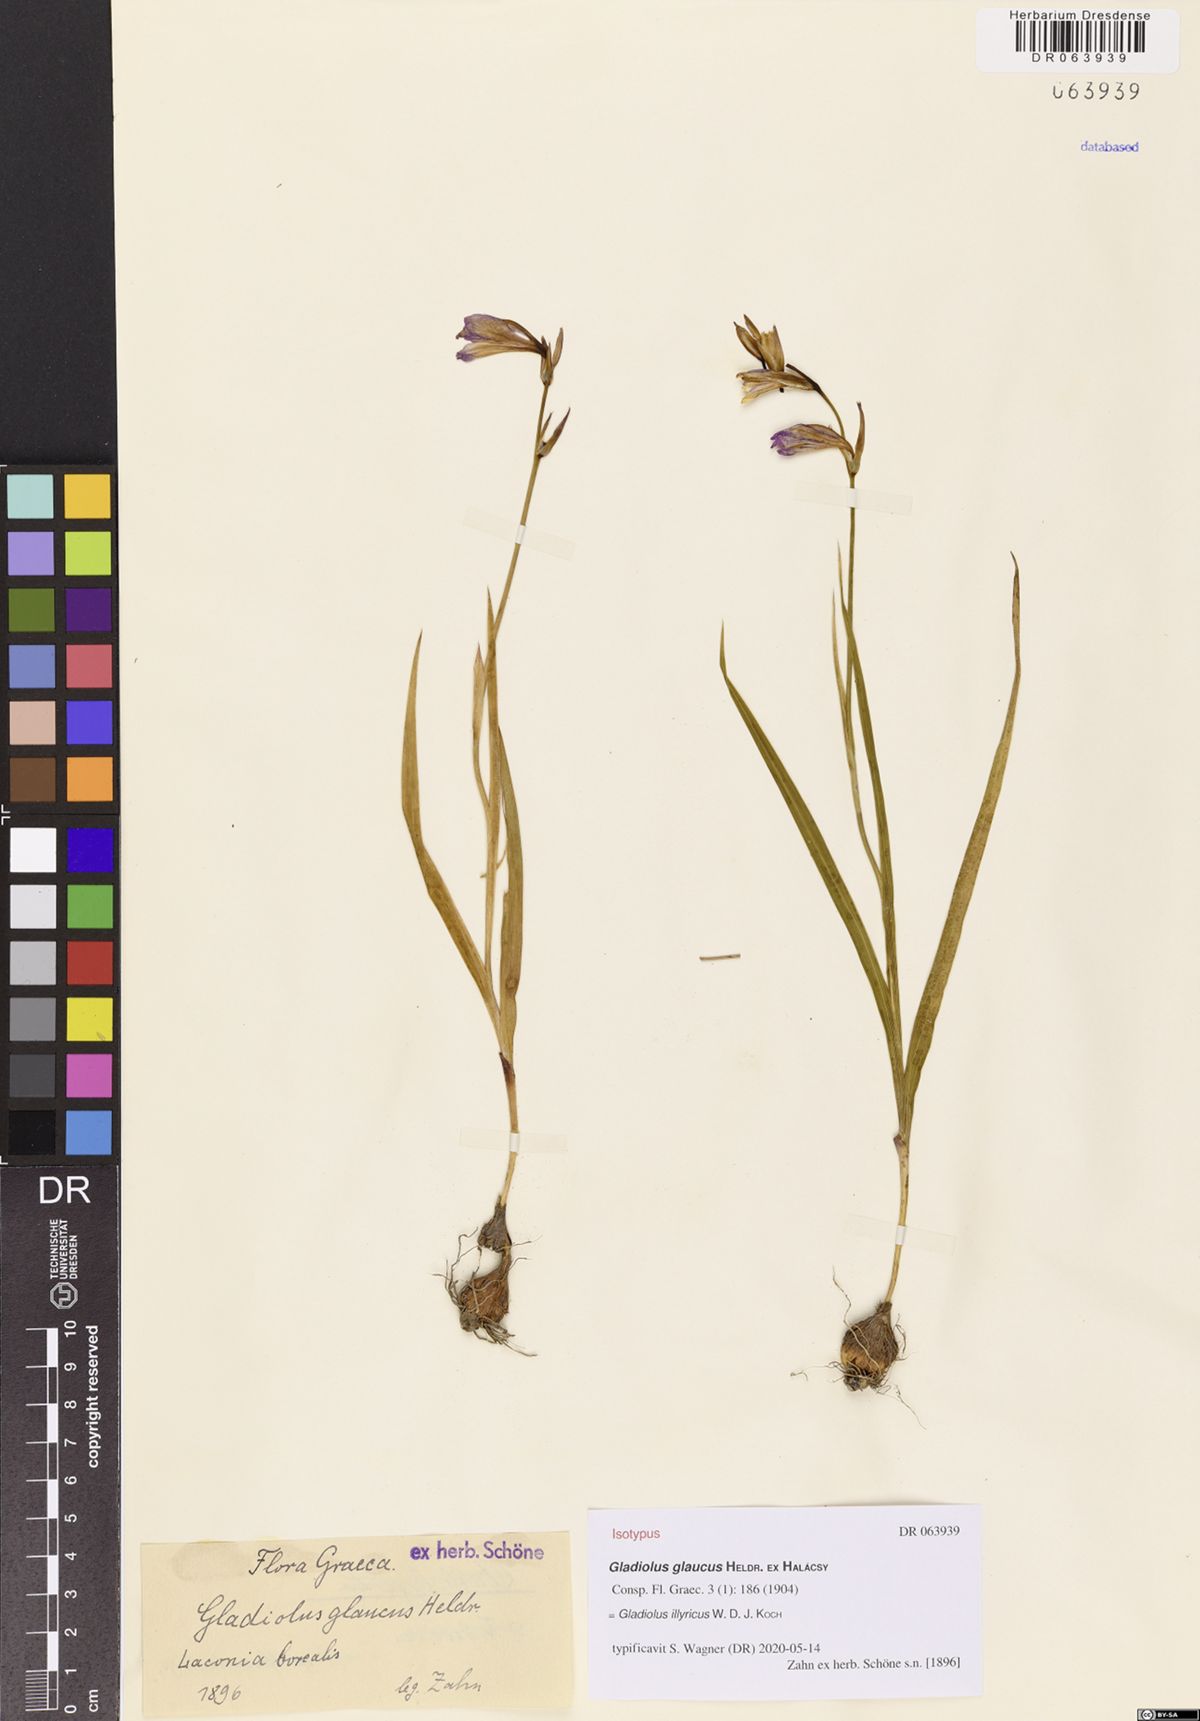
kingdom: Plantae
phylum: Tracheophyta
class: Liliopsida
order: Asparagales
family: Iridaceae
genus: Gladiolus
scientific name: Gladiolus illyricus
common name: Wild gladiolus
